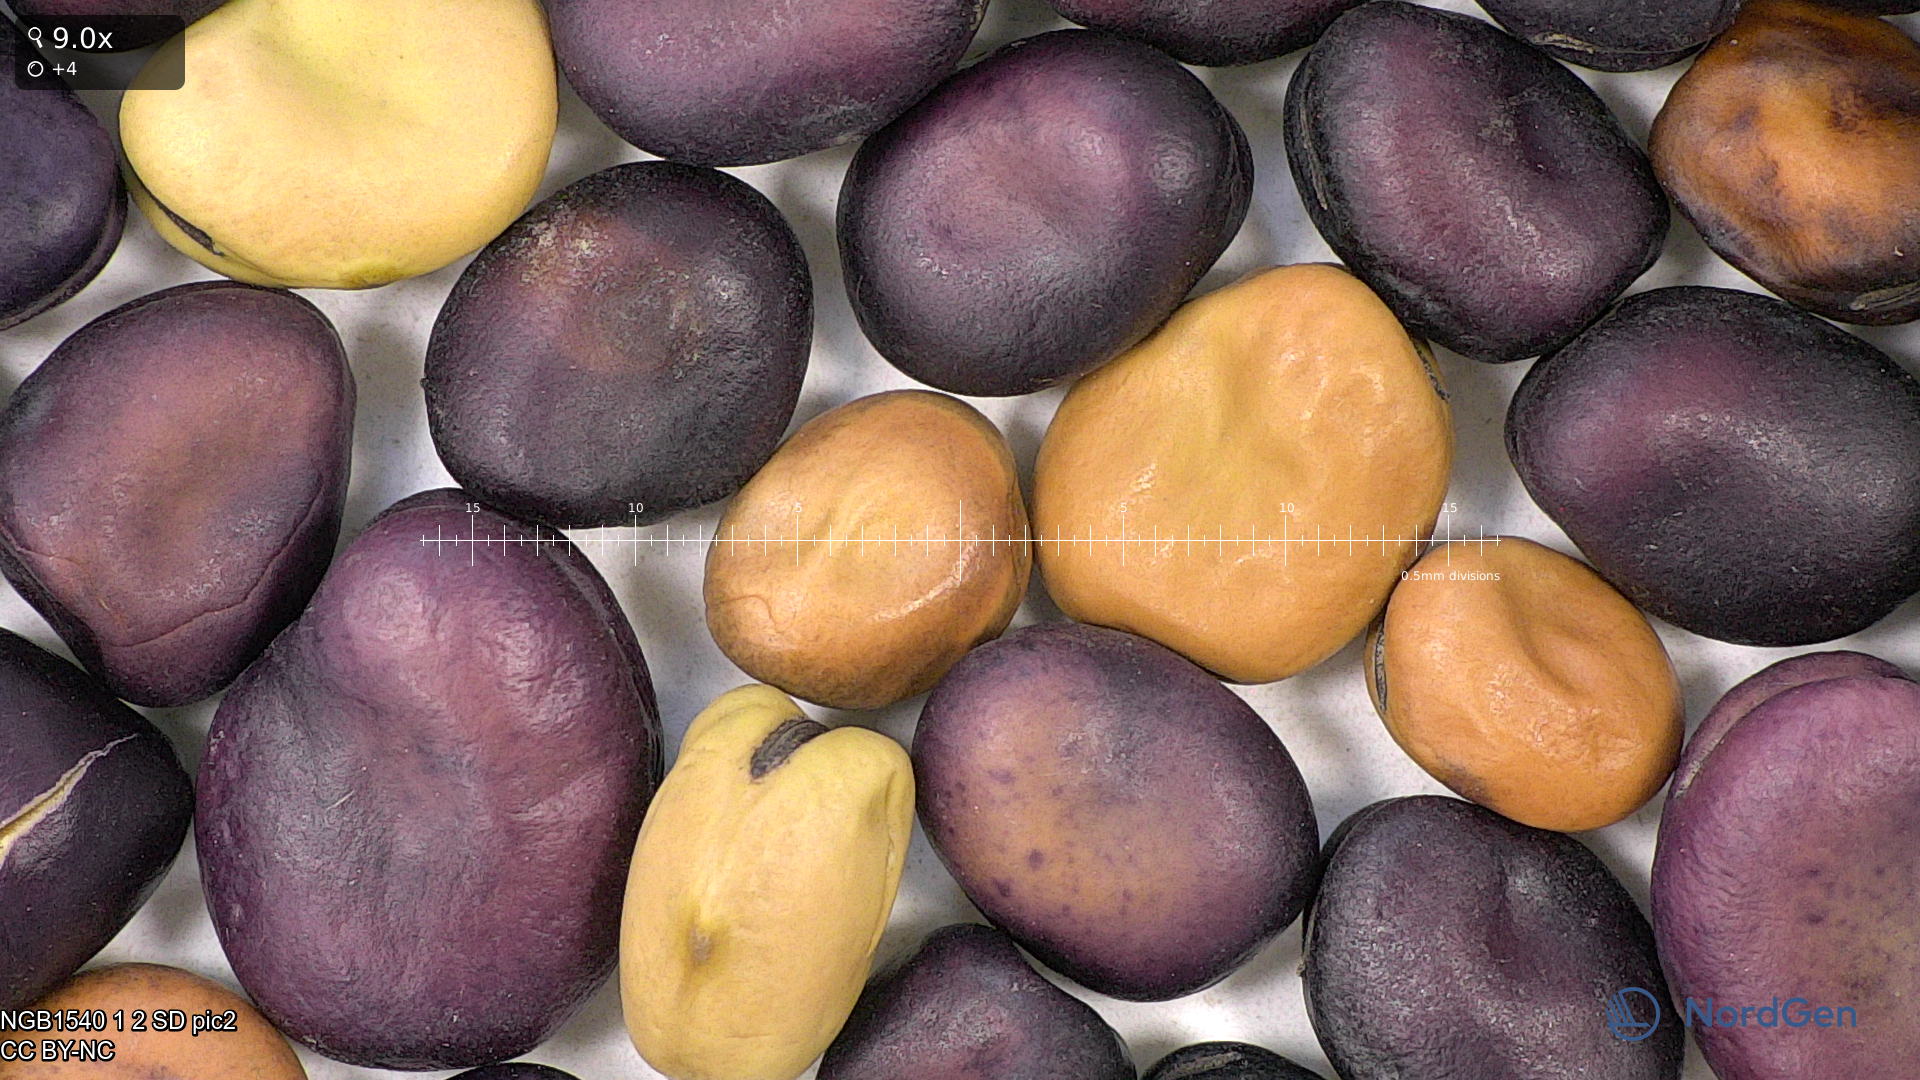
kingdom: Plantae
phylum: Tracheophyta
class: Magnoliopsida
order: Fabales
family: Fabaceae
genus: Vicia
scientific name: Vicia faba
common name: Broad bean
